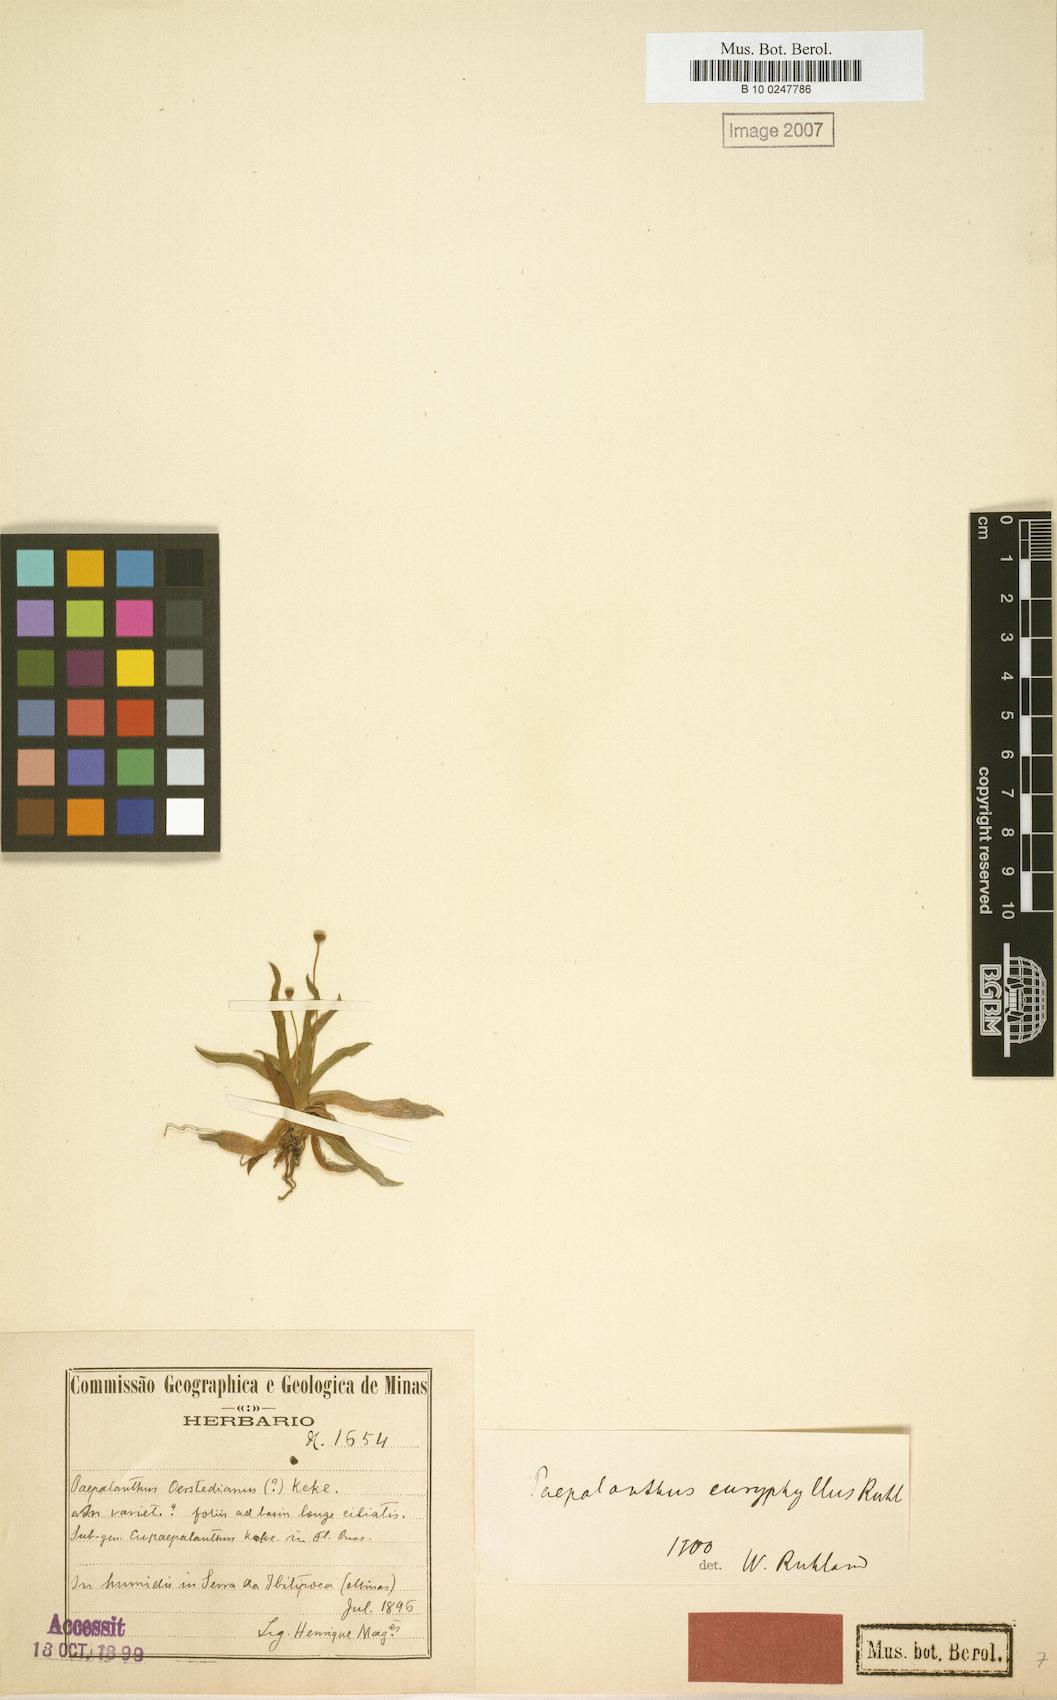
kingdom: Plantae
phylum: Tracheophyta
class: Liliopsida
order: Poales
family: Eriocaulaceae
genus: Paepalanthus
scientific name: Paepalanthus macaheensis
